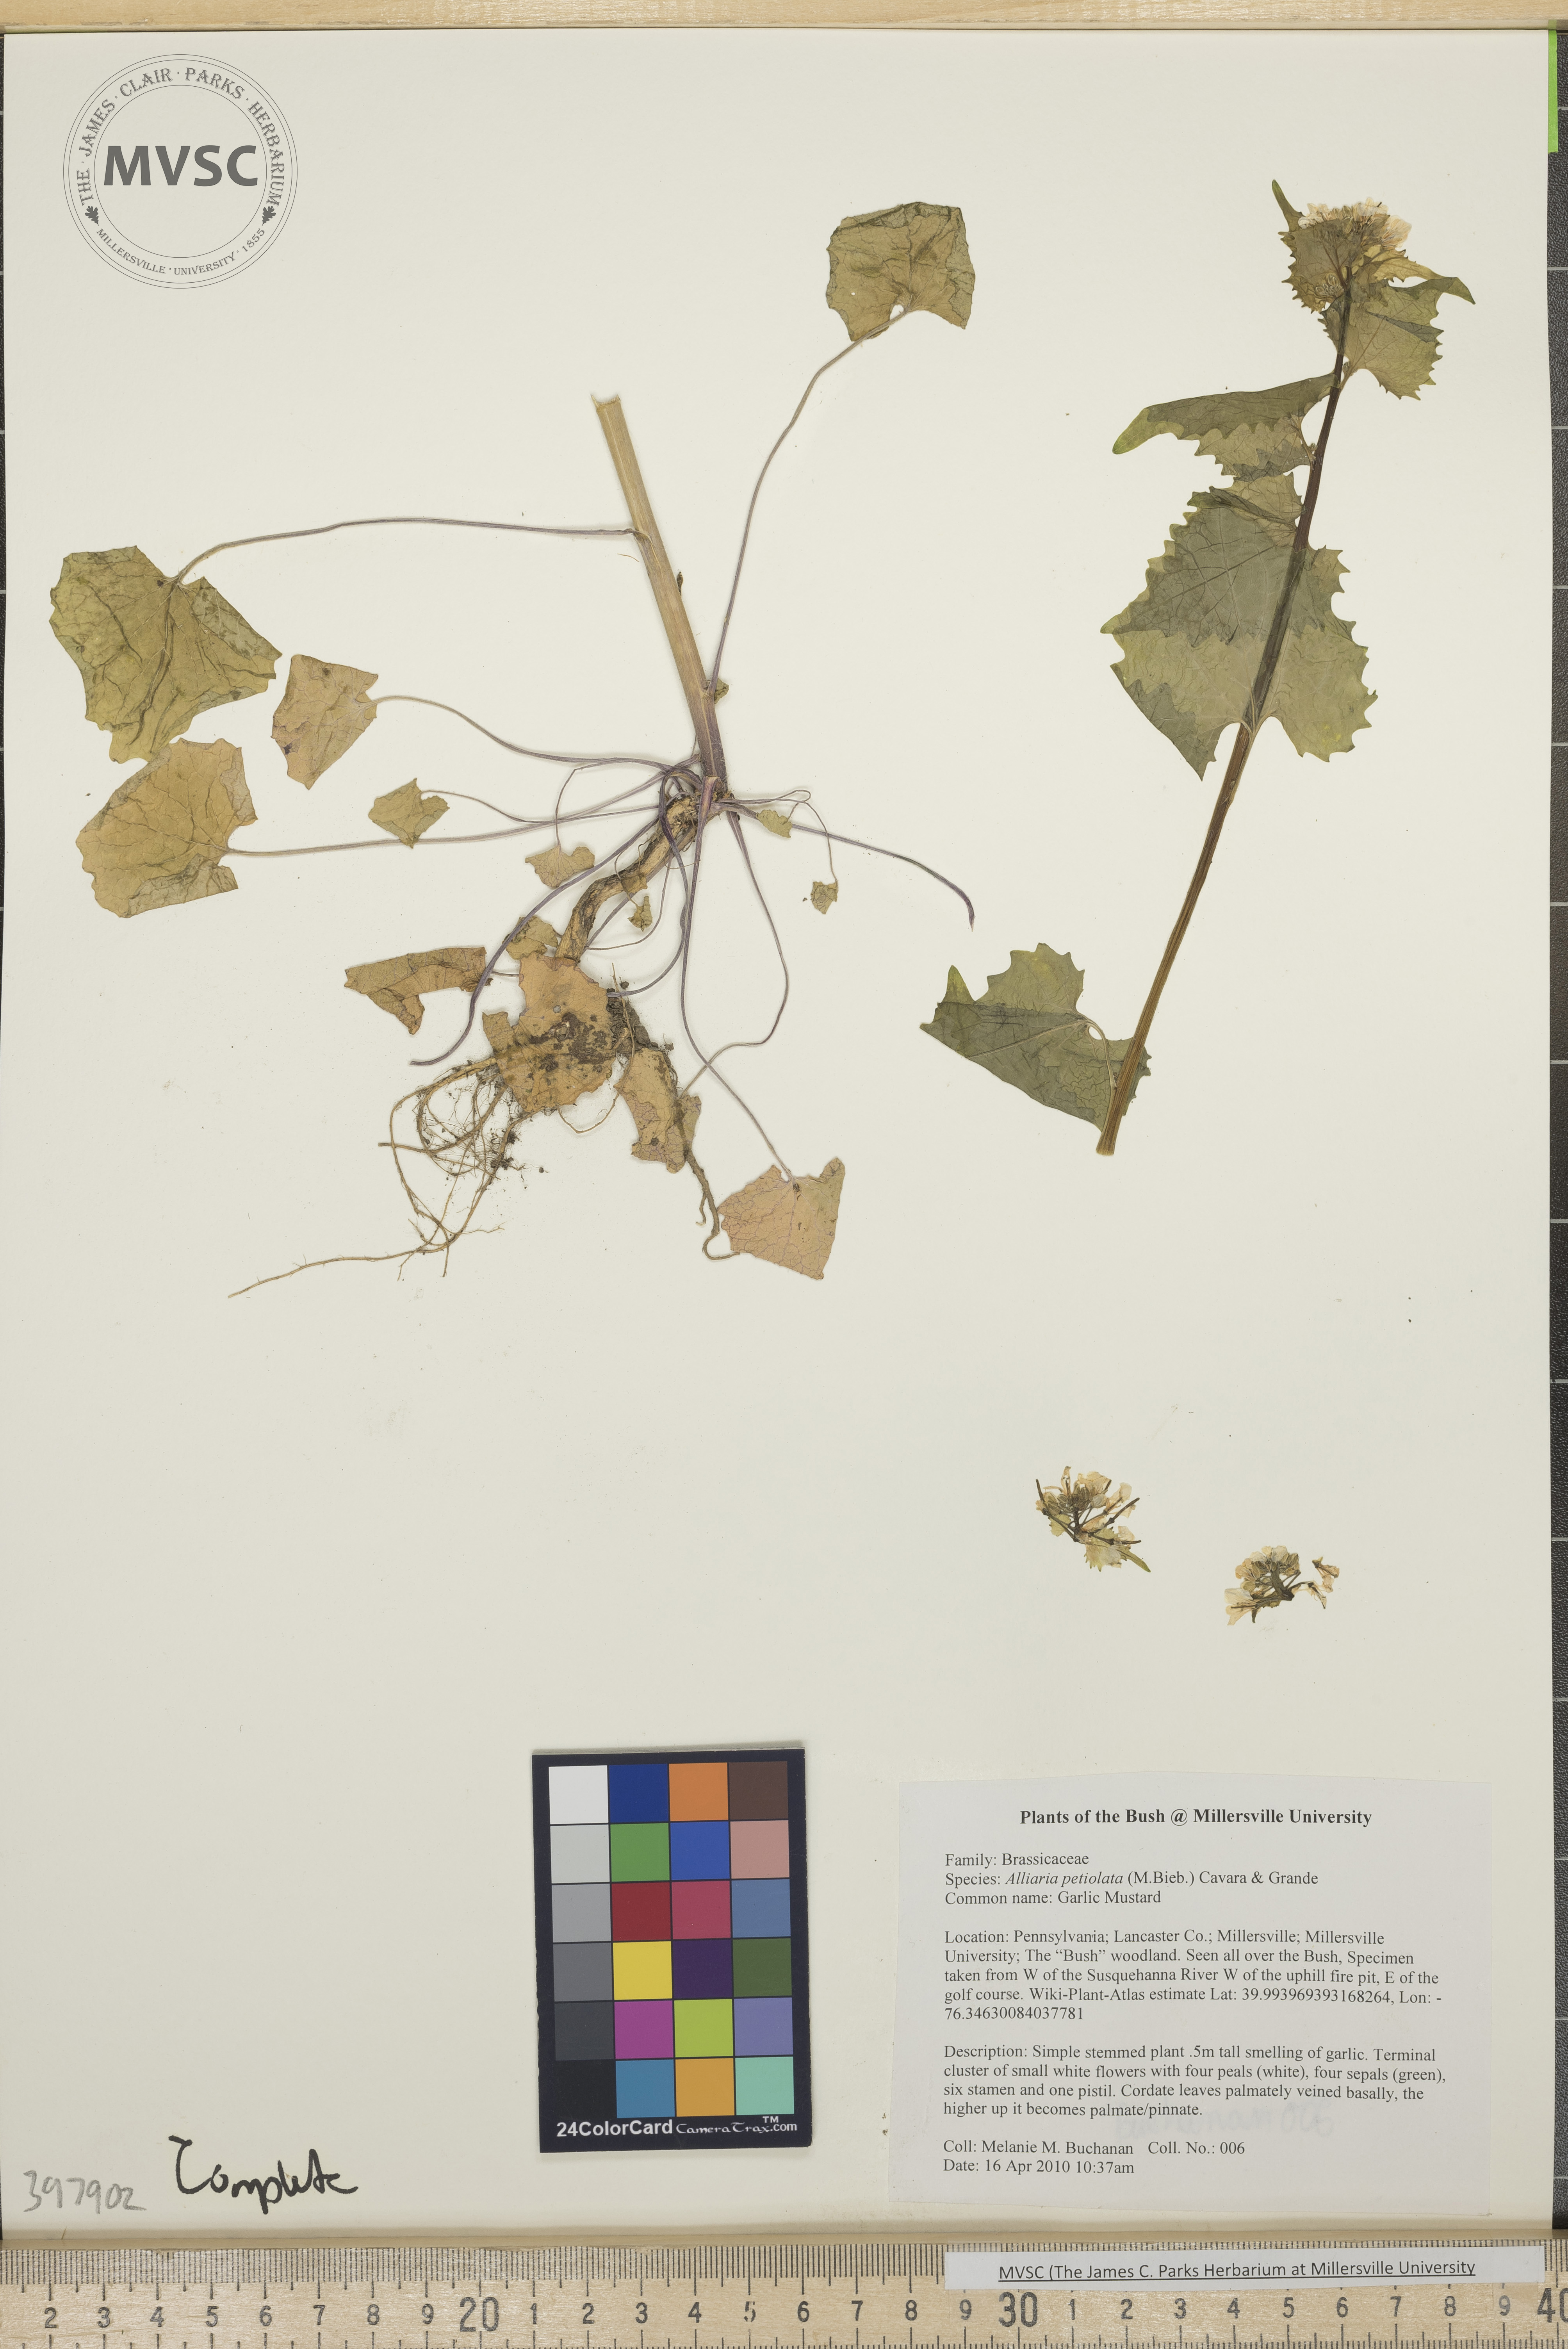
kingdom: Plantae
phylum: Tracheophyta
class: Magnoliopsida
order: Brassicales
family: Brassicaceae
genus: Alliaria
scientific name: Alliaria petiolata
